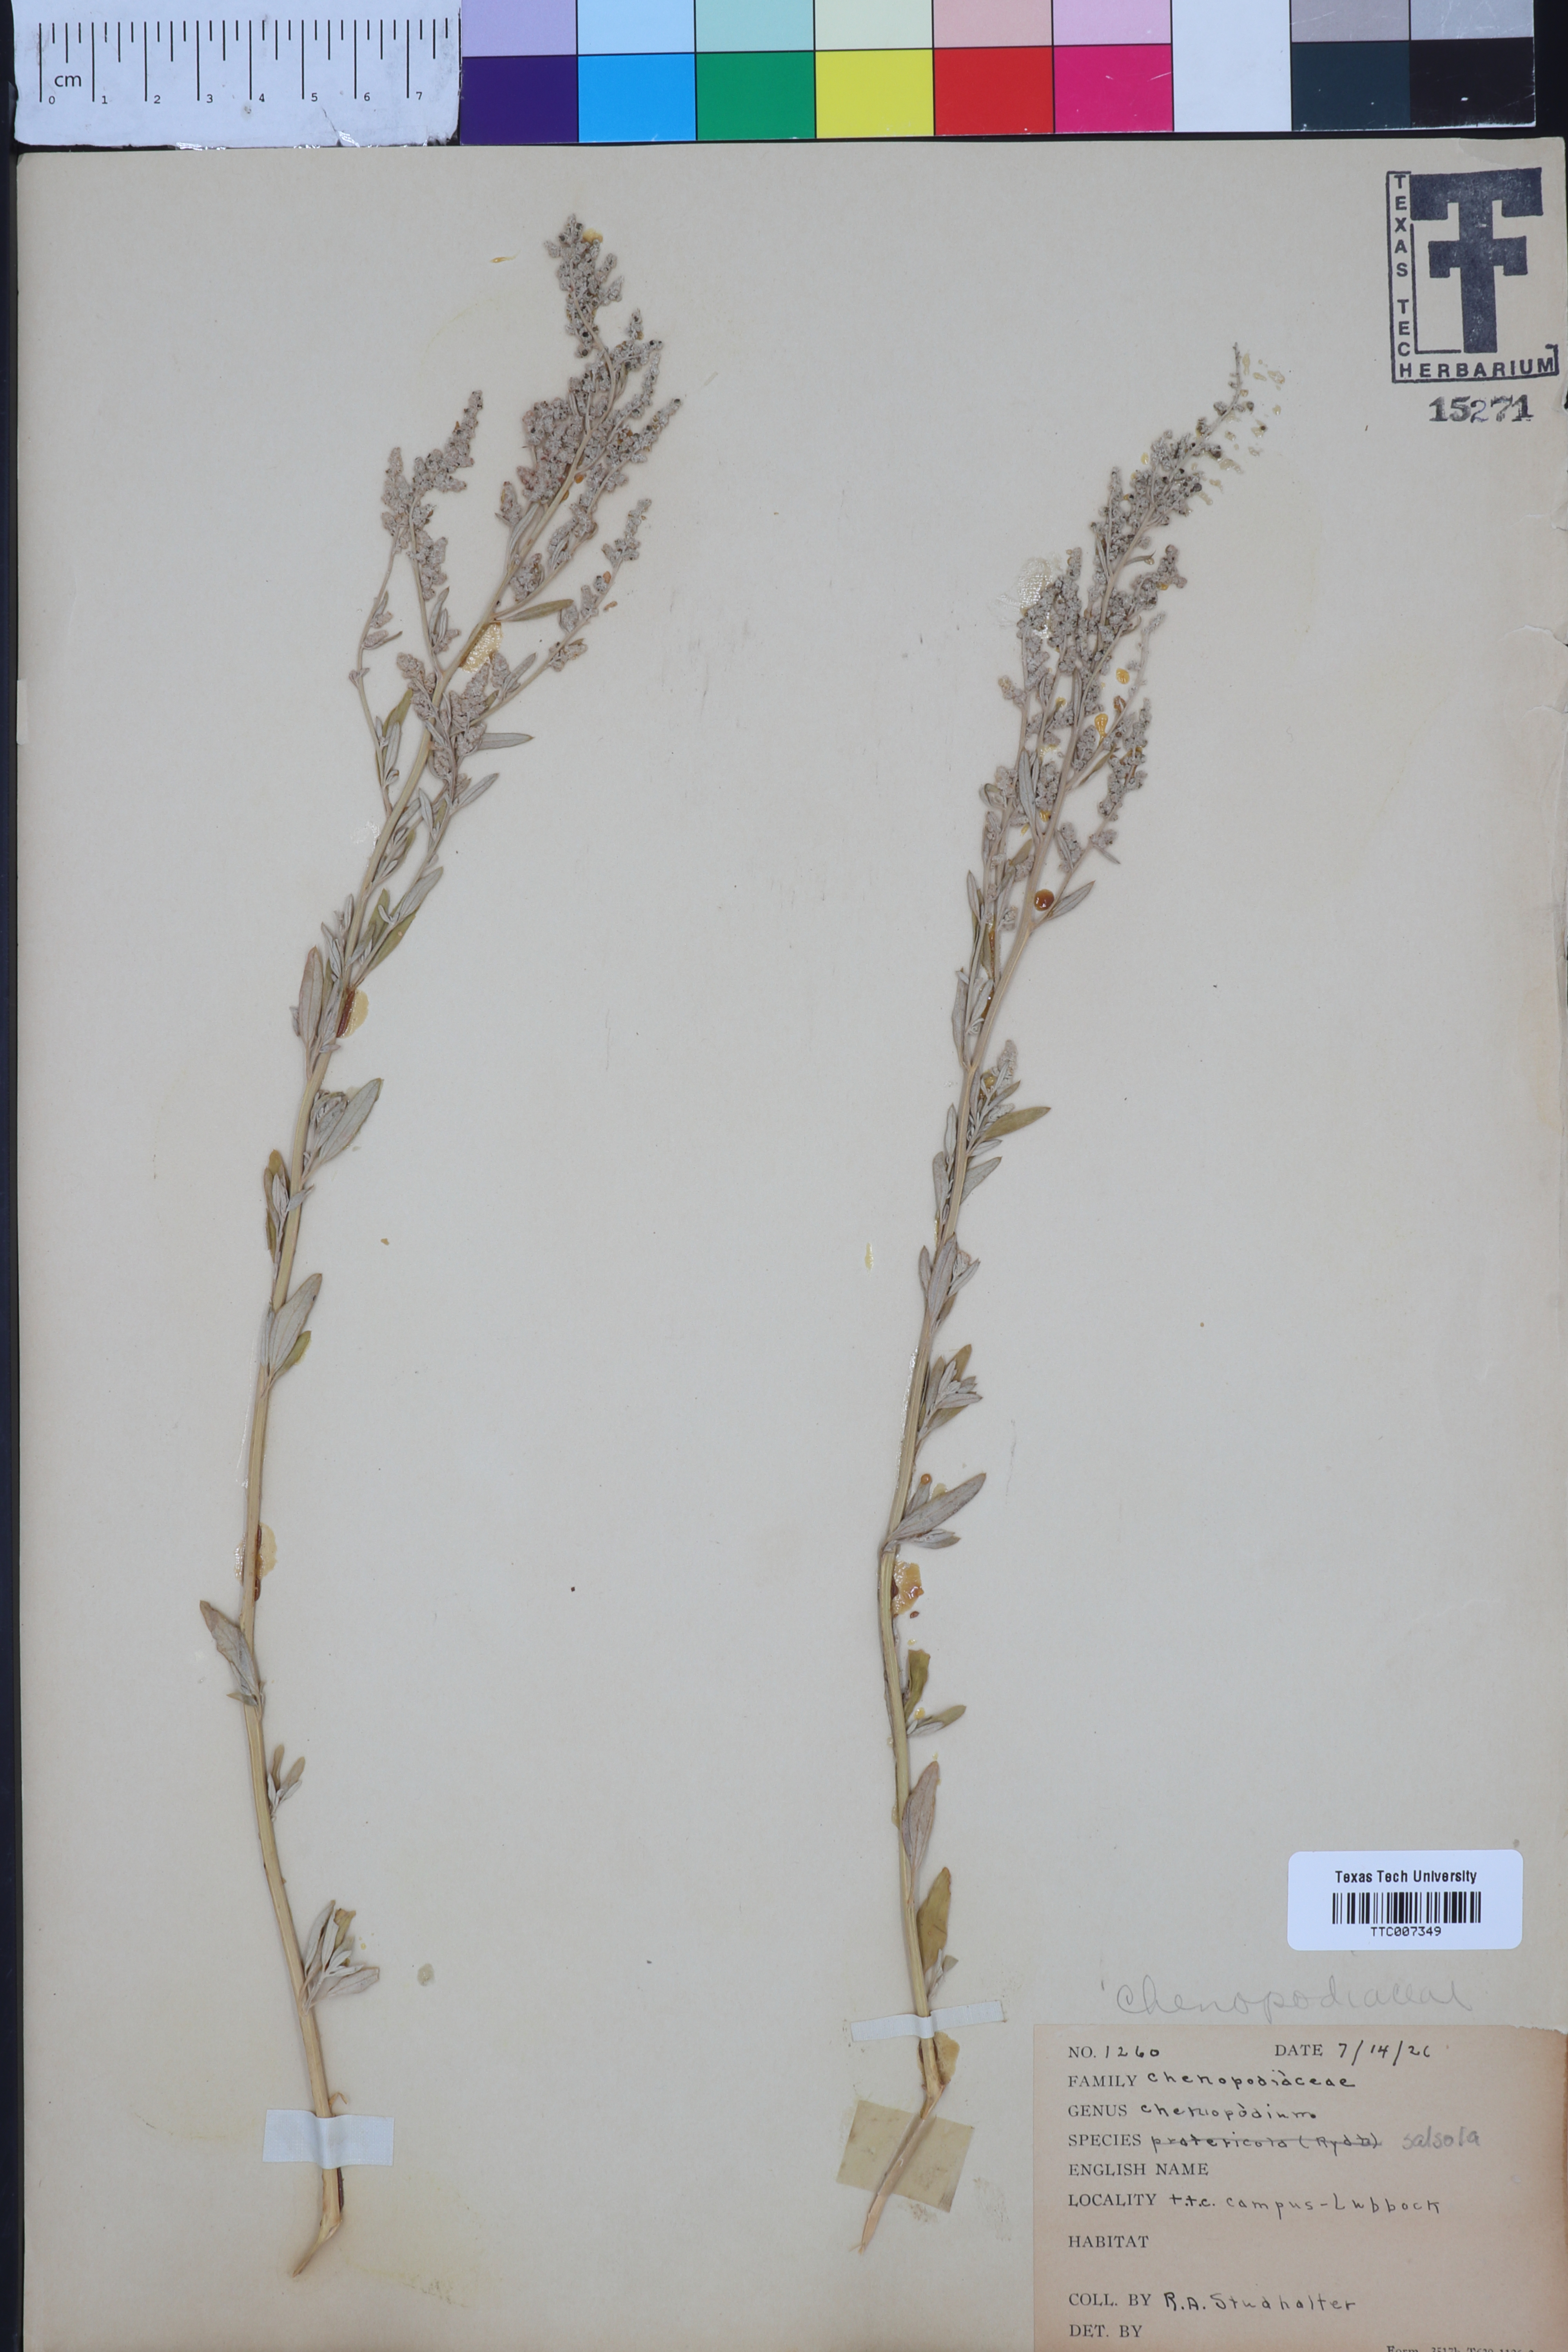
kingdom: Plantae
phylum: Tracheophyta
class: Magnoliopsida
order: Caryophyllales
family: Amaranthaceae
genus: Chenopodium
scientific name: Chenopodium pratericola
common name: Desert goosefoot
